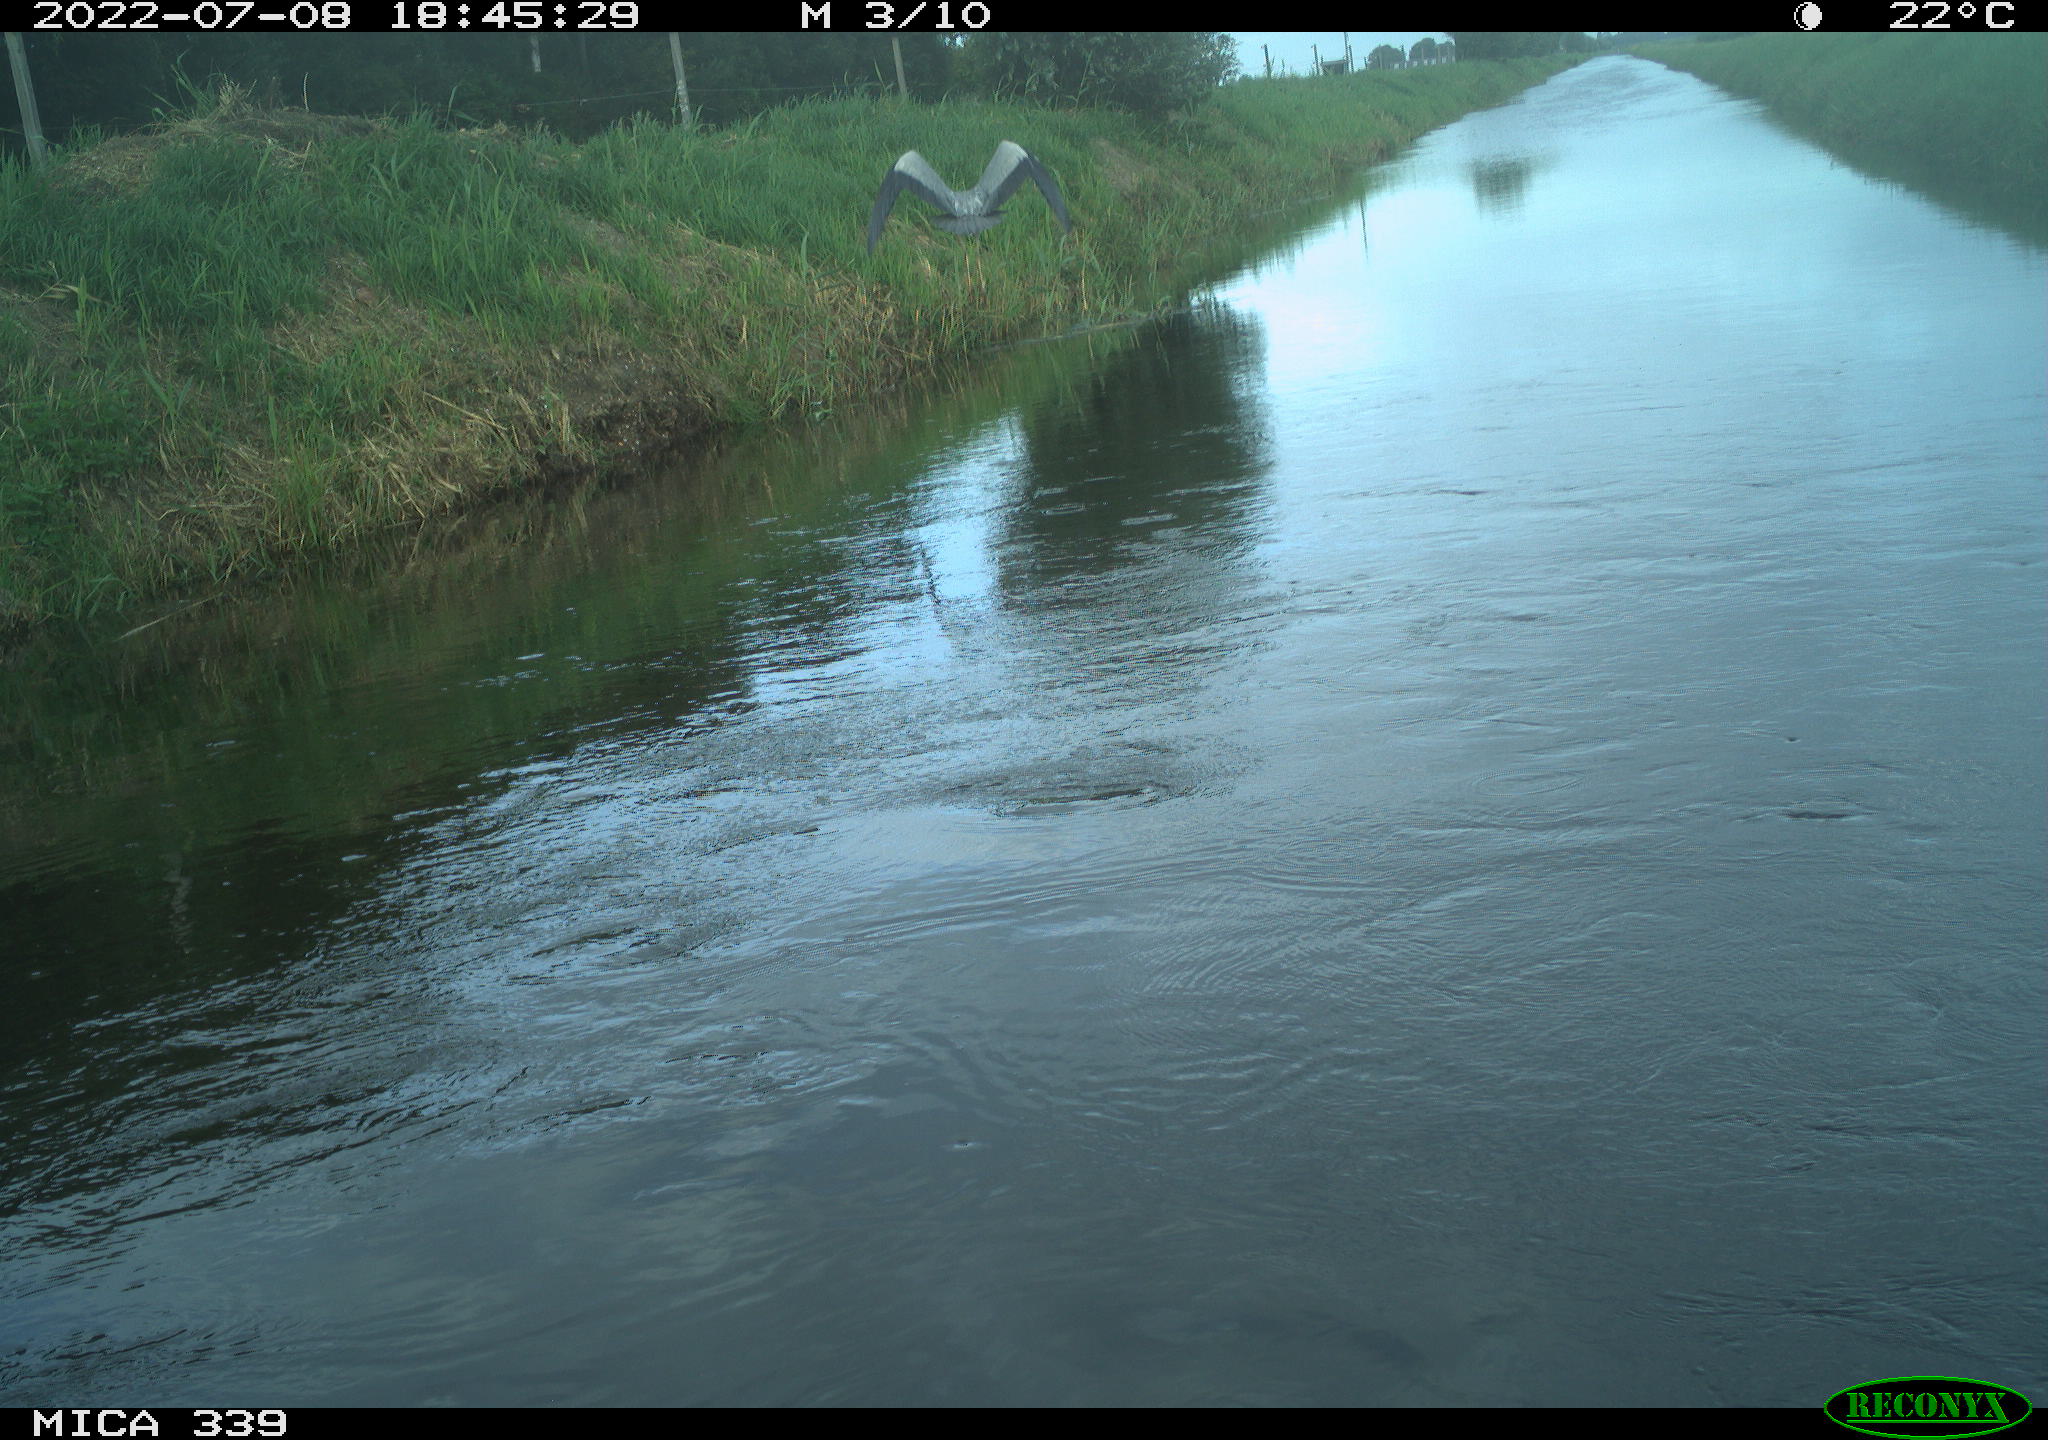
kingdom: Animalia
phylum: Chordata
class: Aves
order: Pelecaniformes
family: Ardeidae
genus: Ardea
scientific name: Ardea cinerea
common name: Grey heron
